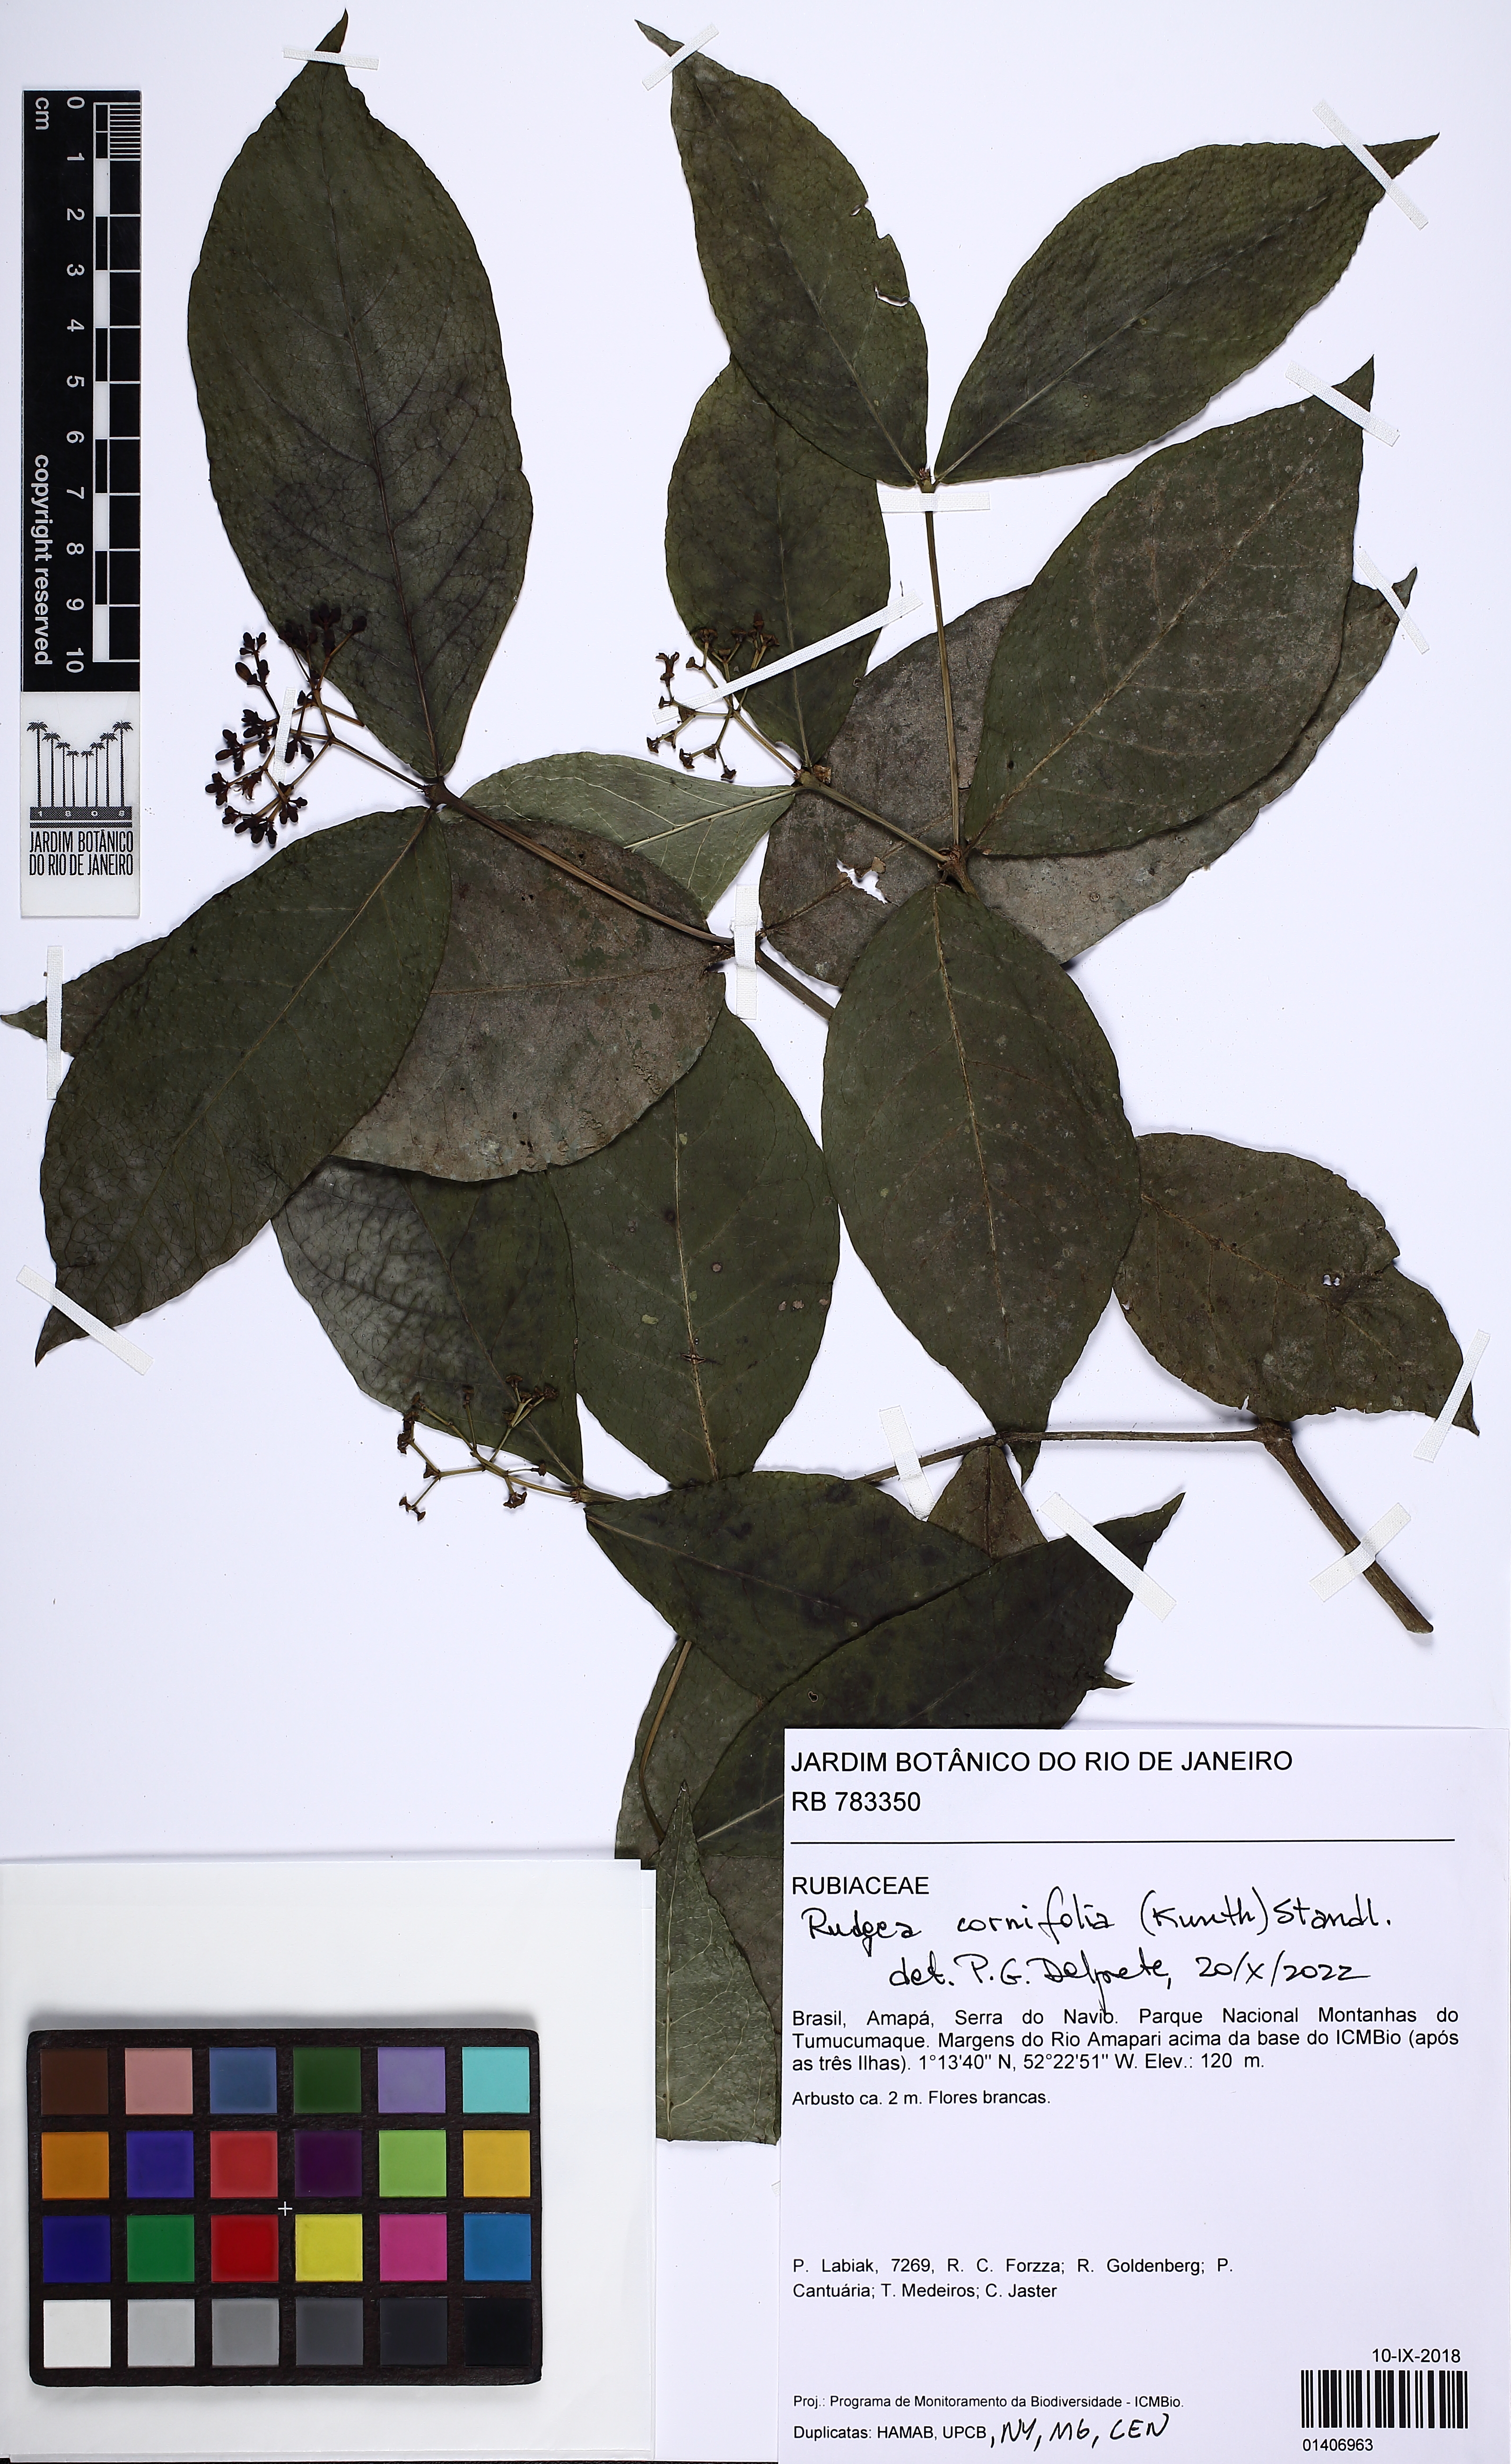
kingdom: Plantae
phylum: Tracheophyta
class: Magnoliopsida
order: Gentianales
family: Rubiaceae
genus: Rudgea
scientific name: Rudgea cornifolia
